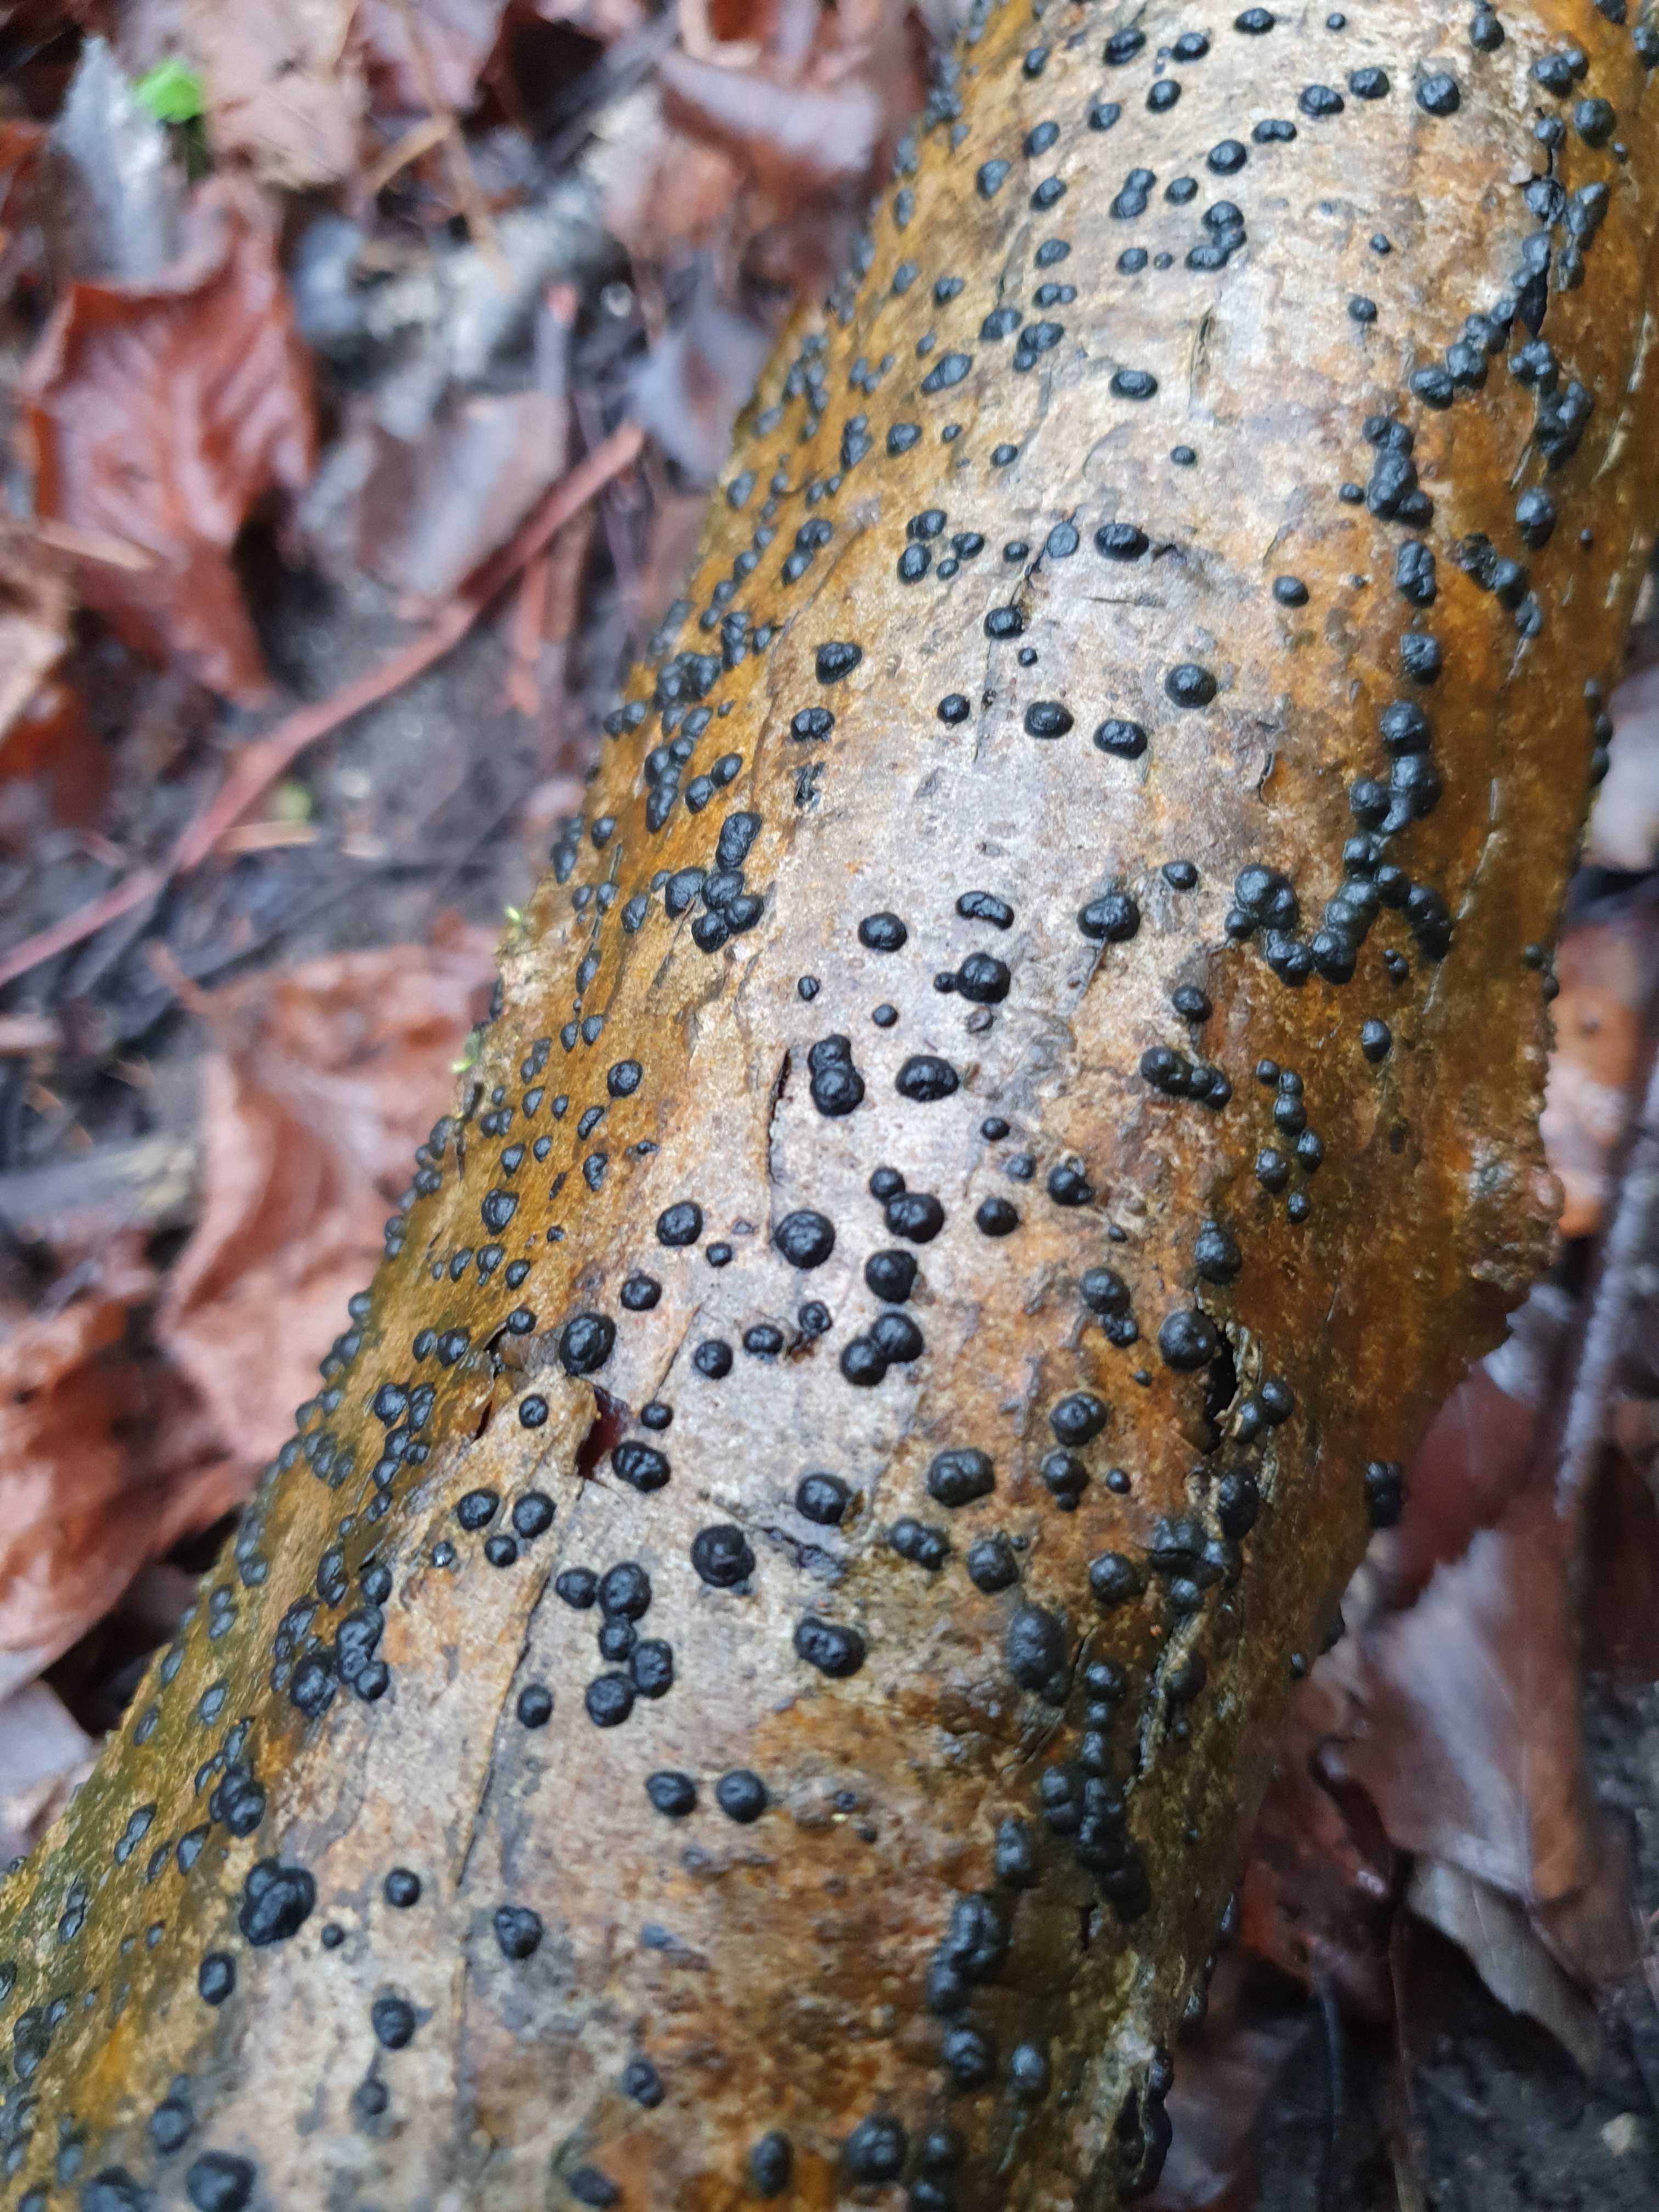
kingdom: Fungi
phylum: Ascomycota
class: Sordariomycetes
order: Xylariales
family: Hypoxylaceae
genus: Hypoxylon
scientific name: Hypoxylon fuscum
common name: kegleformet kulbær
